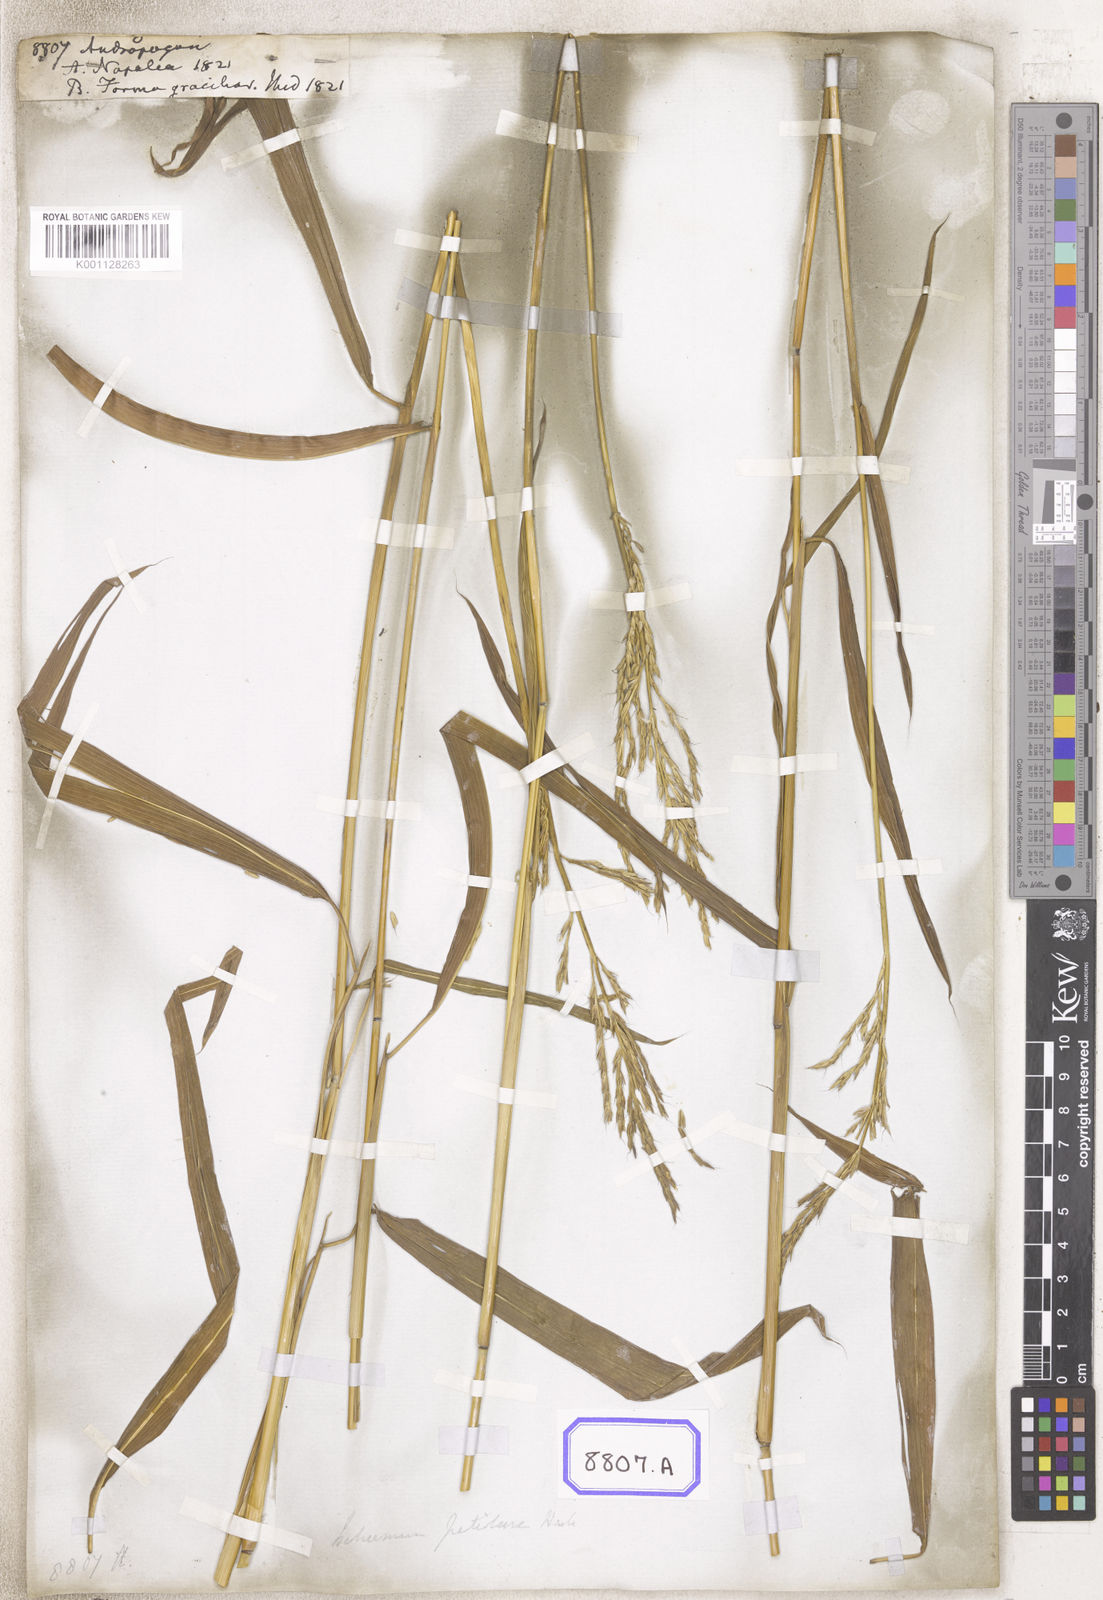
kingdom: Plantae
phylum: Tracheophyta
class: Liliopsida
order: Poales
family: Poaceae
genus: Andropogon
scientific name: Andropogon
